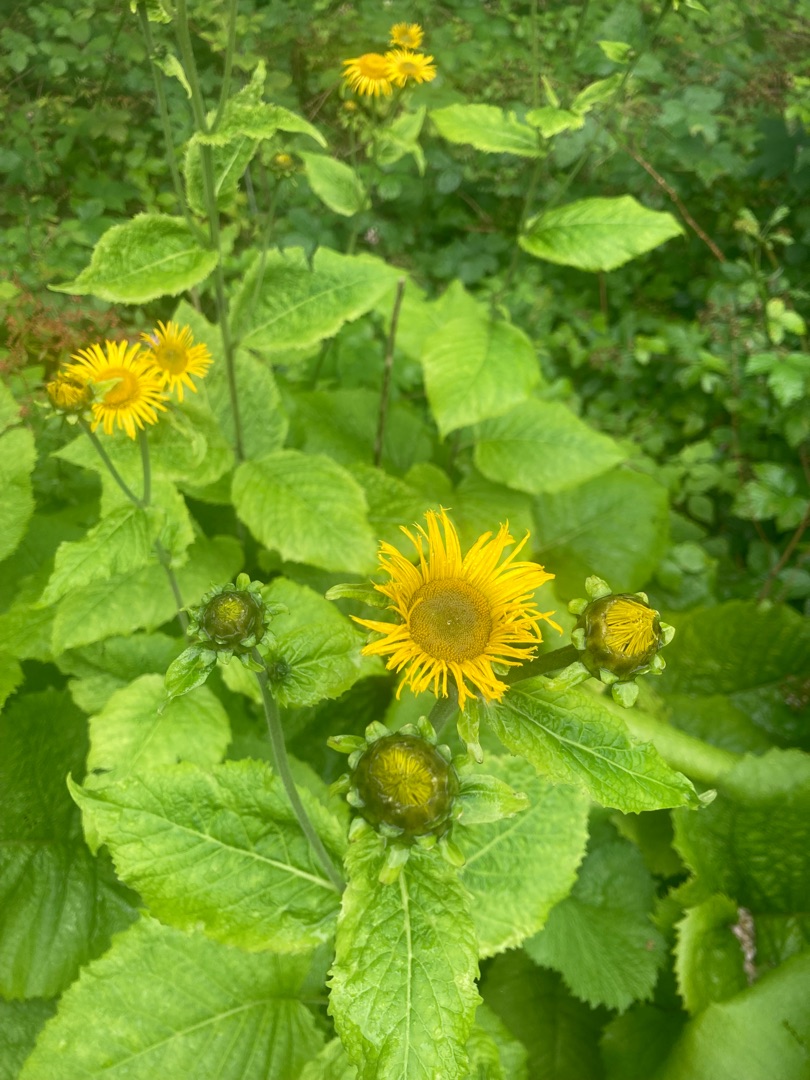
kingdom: Plantae
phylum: Tracheophyta
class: Magnoliopsida
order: Asterales
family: Asteraceae
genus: Telekia
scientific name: Telekia speciosa
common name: Tusindstråle
